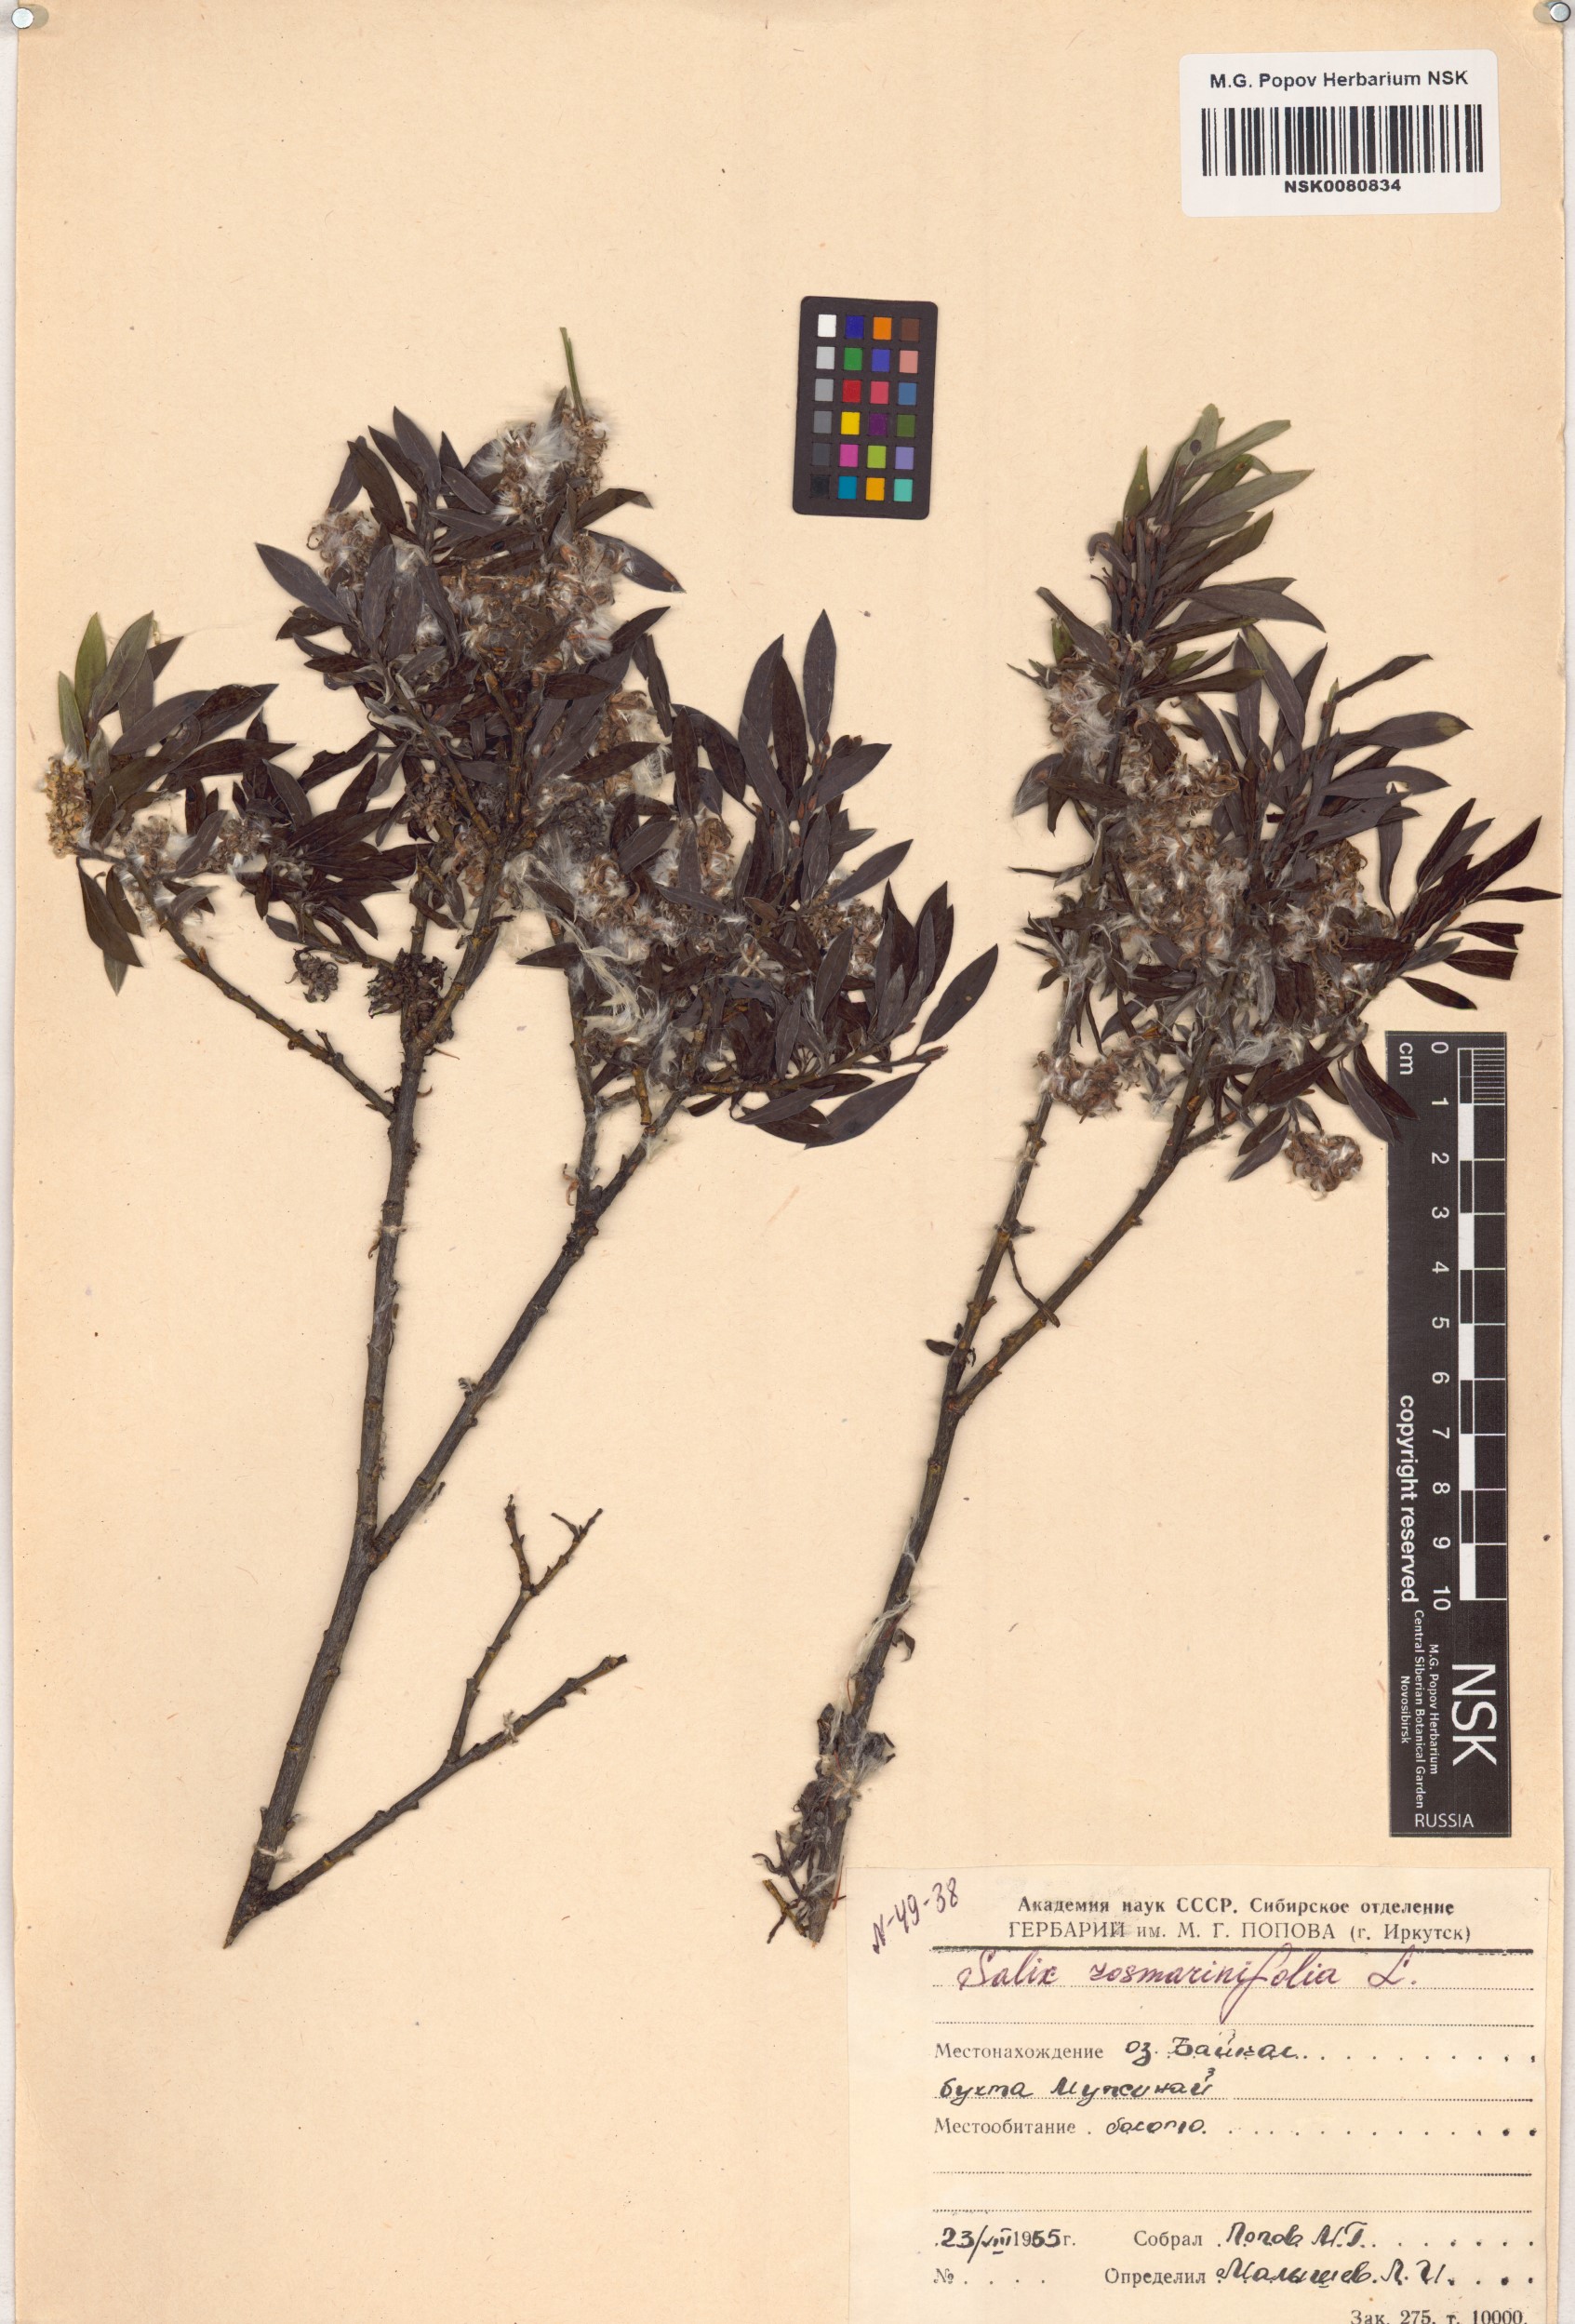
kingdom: Plantae
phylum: Tracheophyta
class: Magnoliopsida
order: Malpighiales
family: Salicaceae
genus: Salix
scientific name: Salix rosmarinifolia
